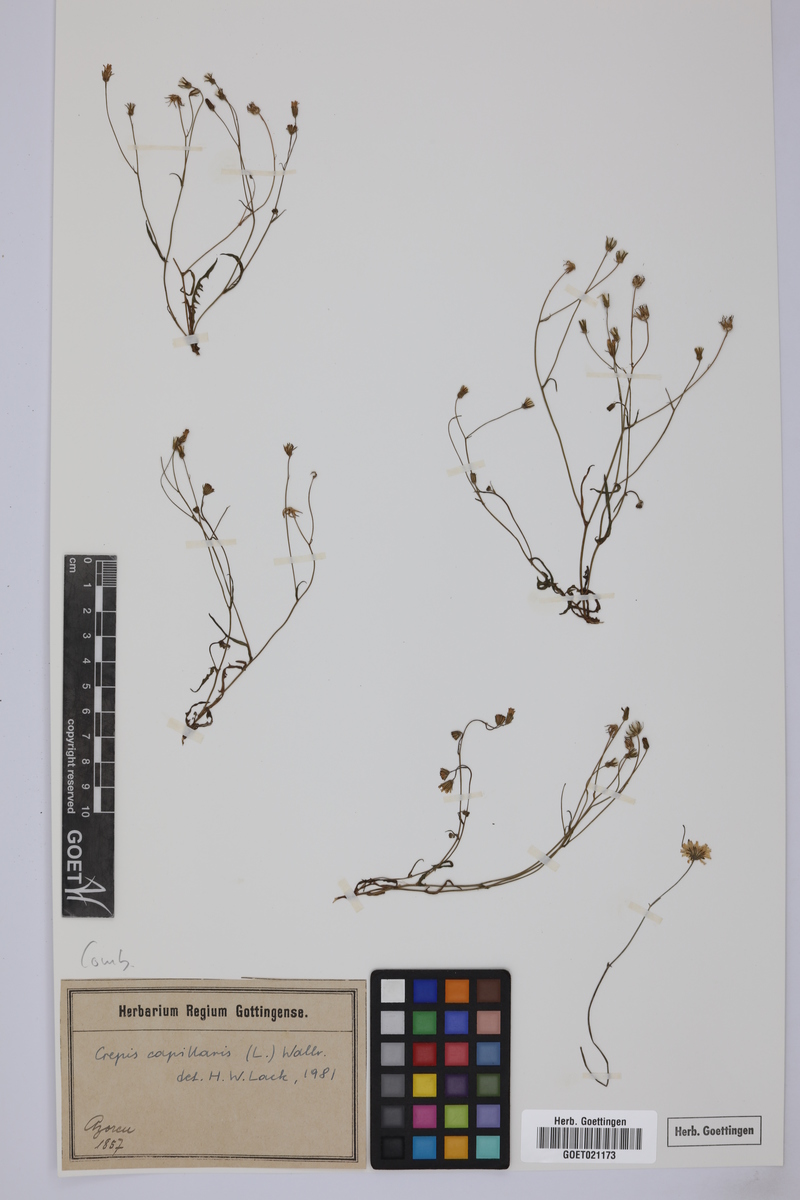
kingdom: Plantae
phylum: Tracheophyta
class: Magnoliopsida
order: Asterales
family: Asteraceae
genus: Crepis
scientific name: Crepis capillaris
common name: Smooth hawksbeard
